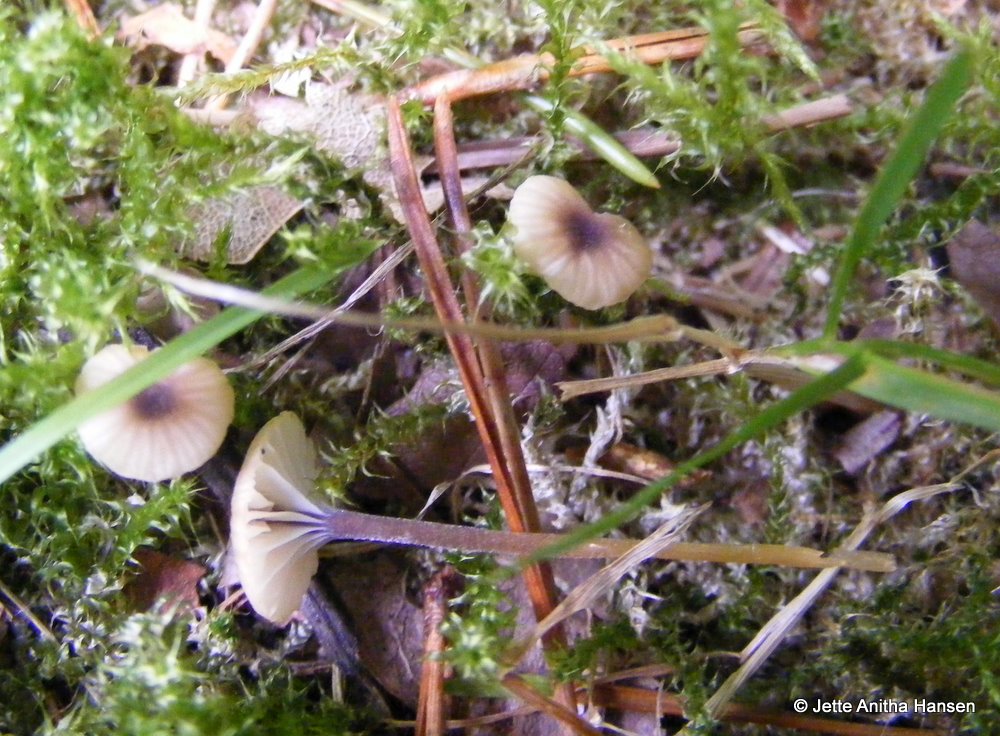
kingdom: Fungi
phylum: Basidiomycota
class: Agaricomycetes
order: Hymenochaetales
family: Rickenellaceae
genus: Rickenella
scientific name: Rickenella swartzii
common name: finstokket mosnavlehat
